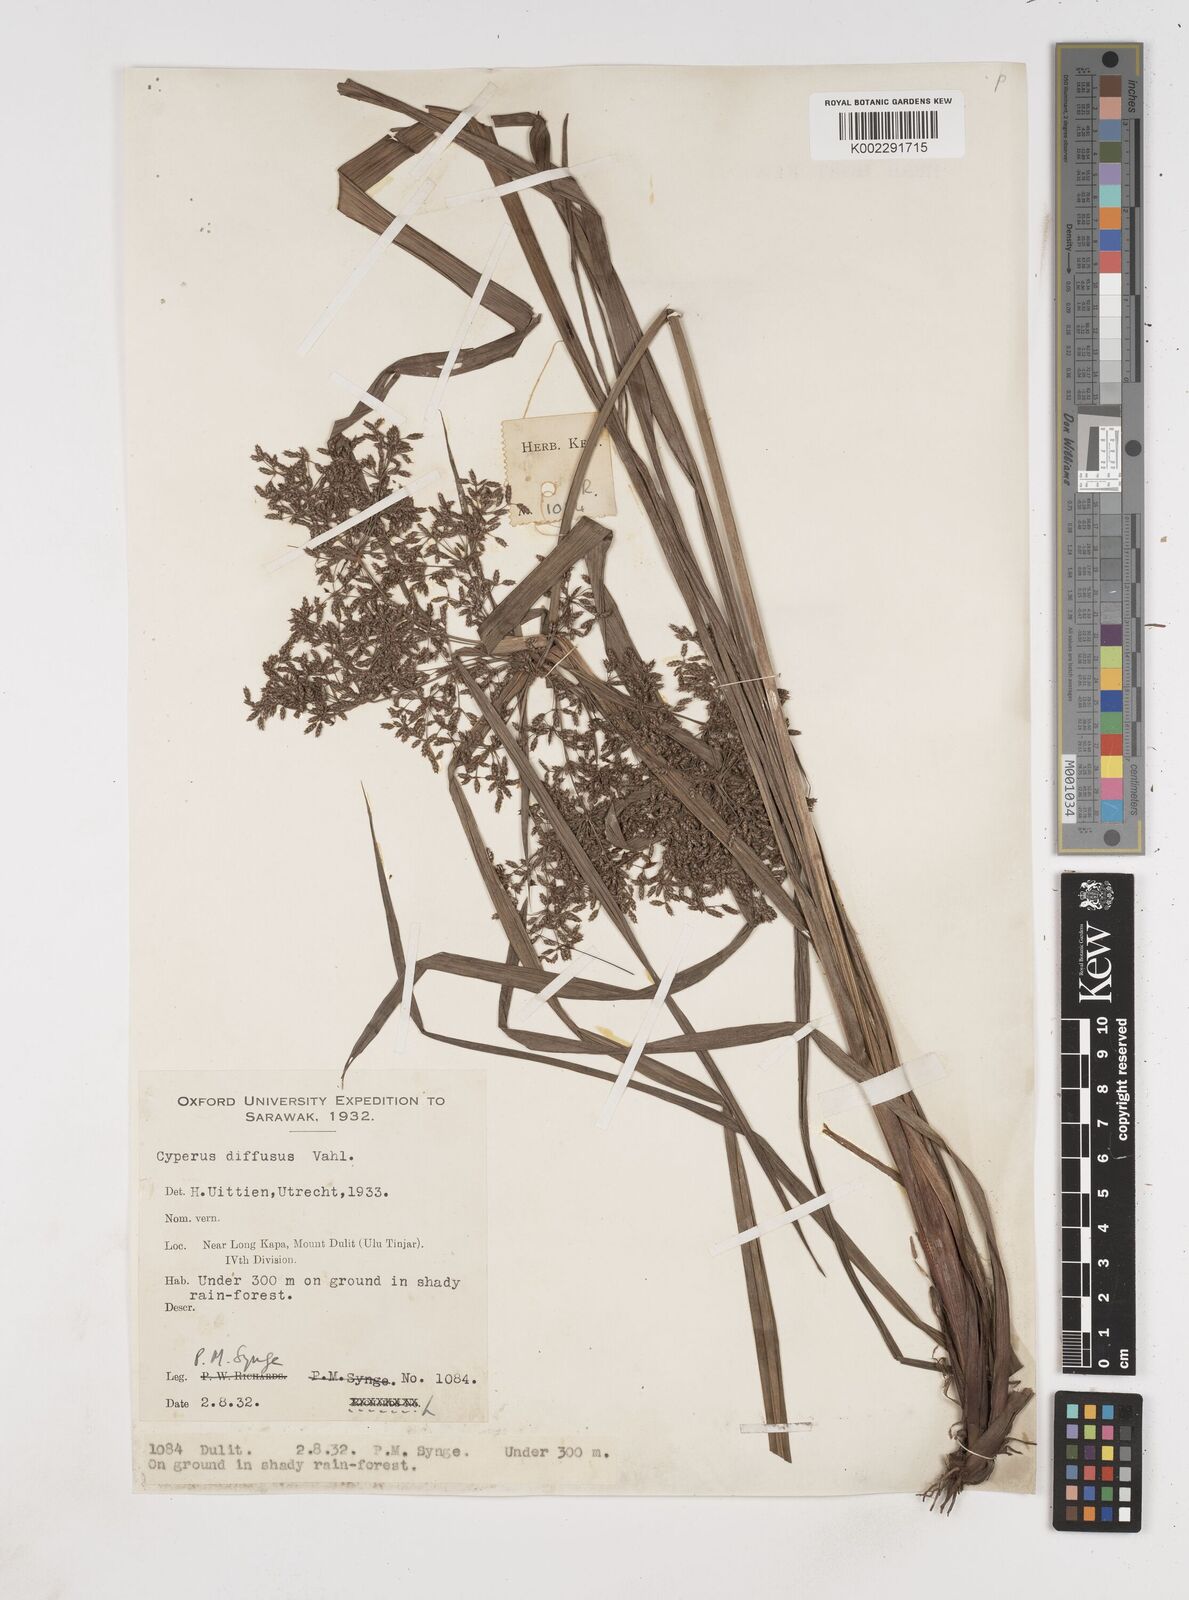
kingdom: Plantae
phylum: Tracheophyta
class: Liliopsida
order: Poales
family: Cyperaceae
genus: Cyperus
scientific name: Cyperus diffusus
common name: Dwarf umbrella grass
